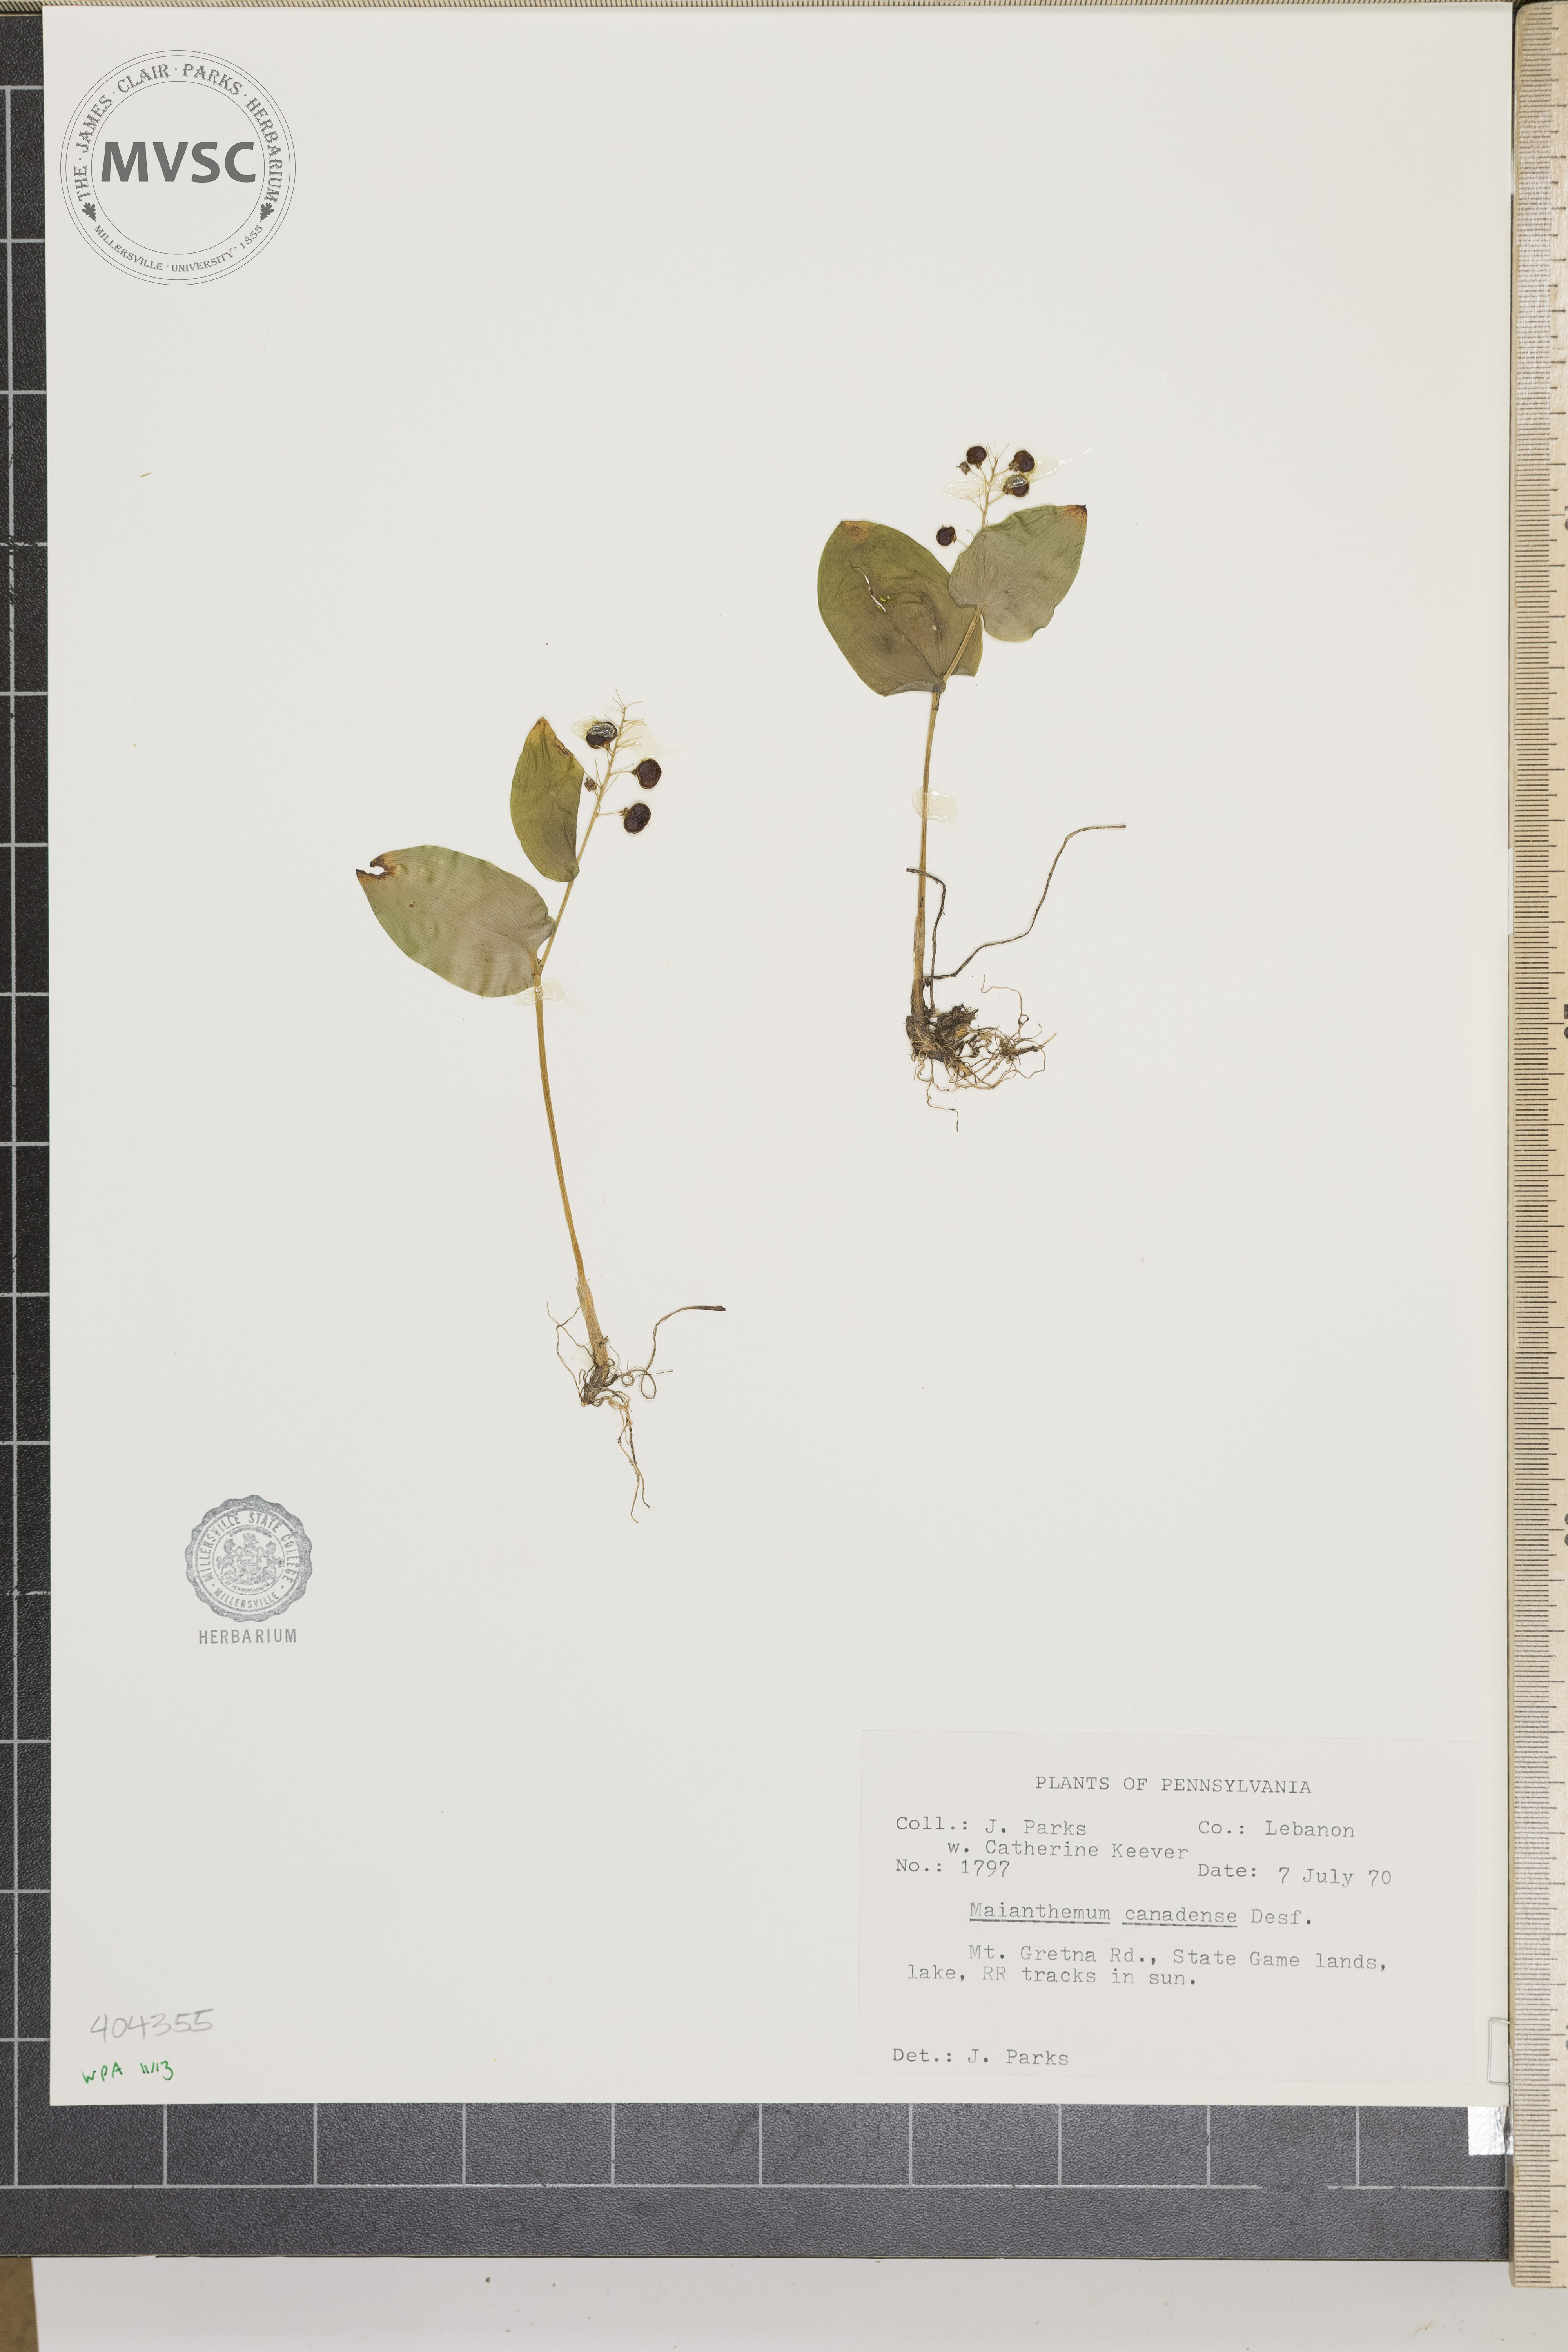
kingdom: Plantae
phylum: Tracheophyta
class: Liliopsida
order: Asparagales
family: Asparagaceae
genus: Maianthemum
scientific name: Maianthemum canadense
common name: False lily-of-the-valley
